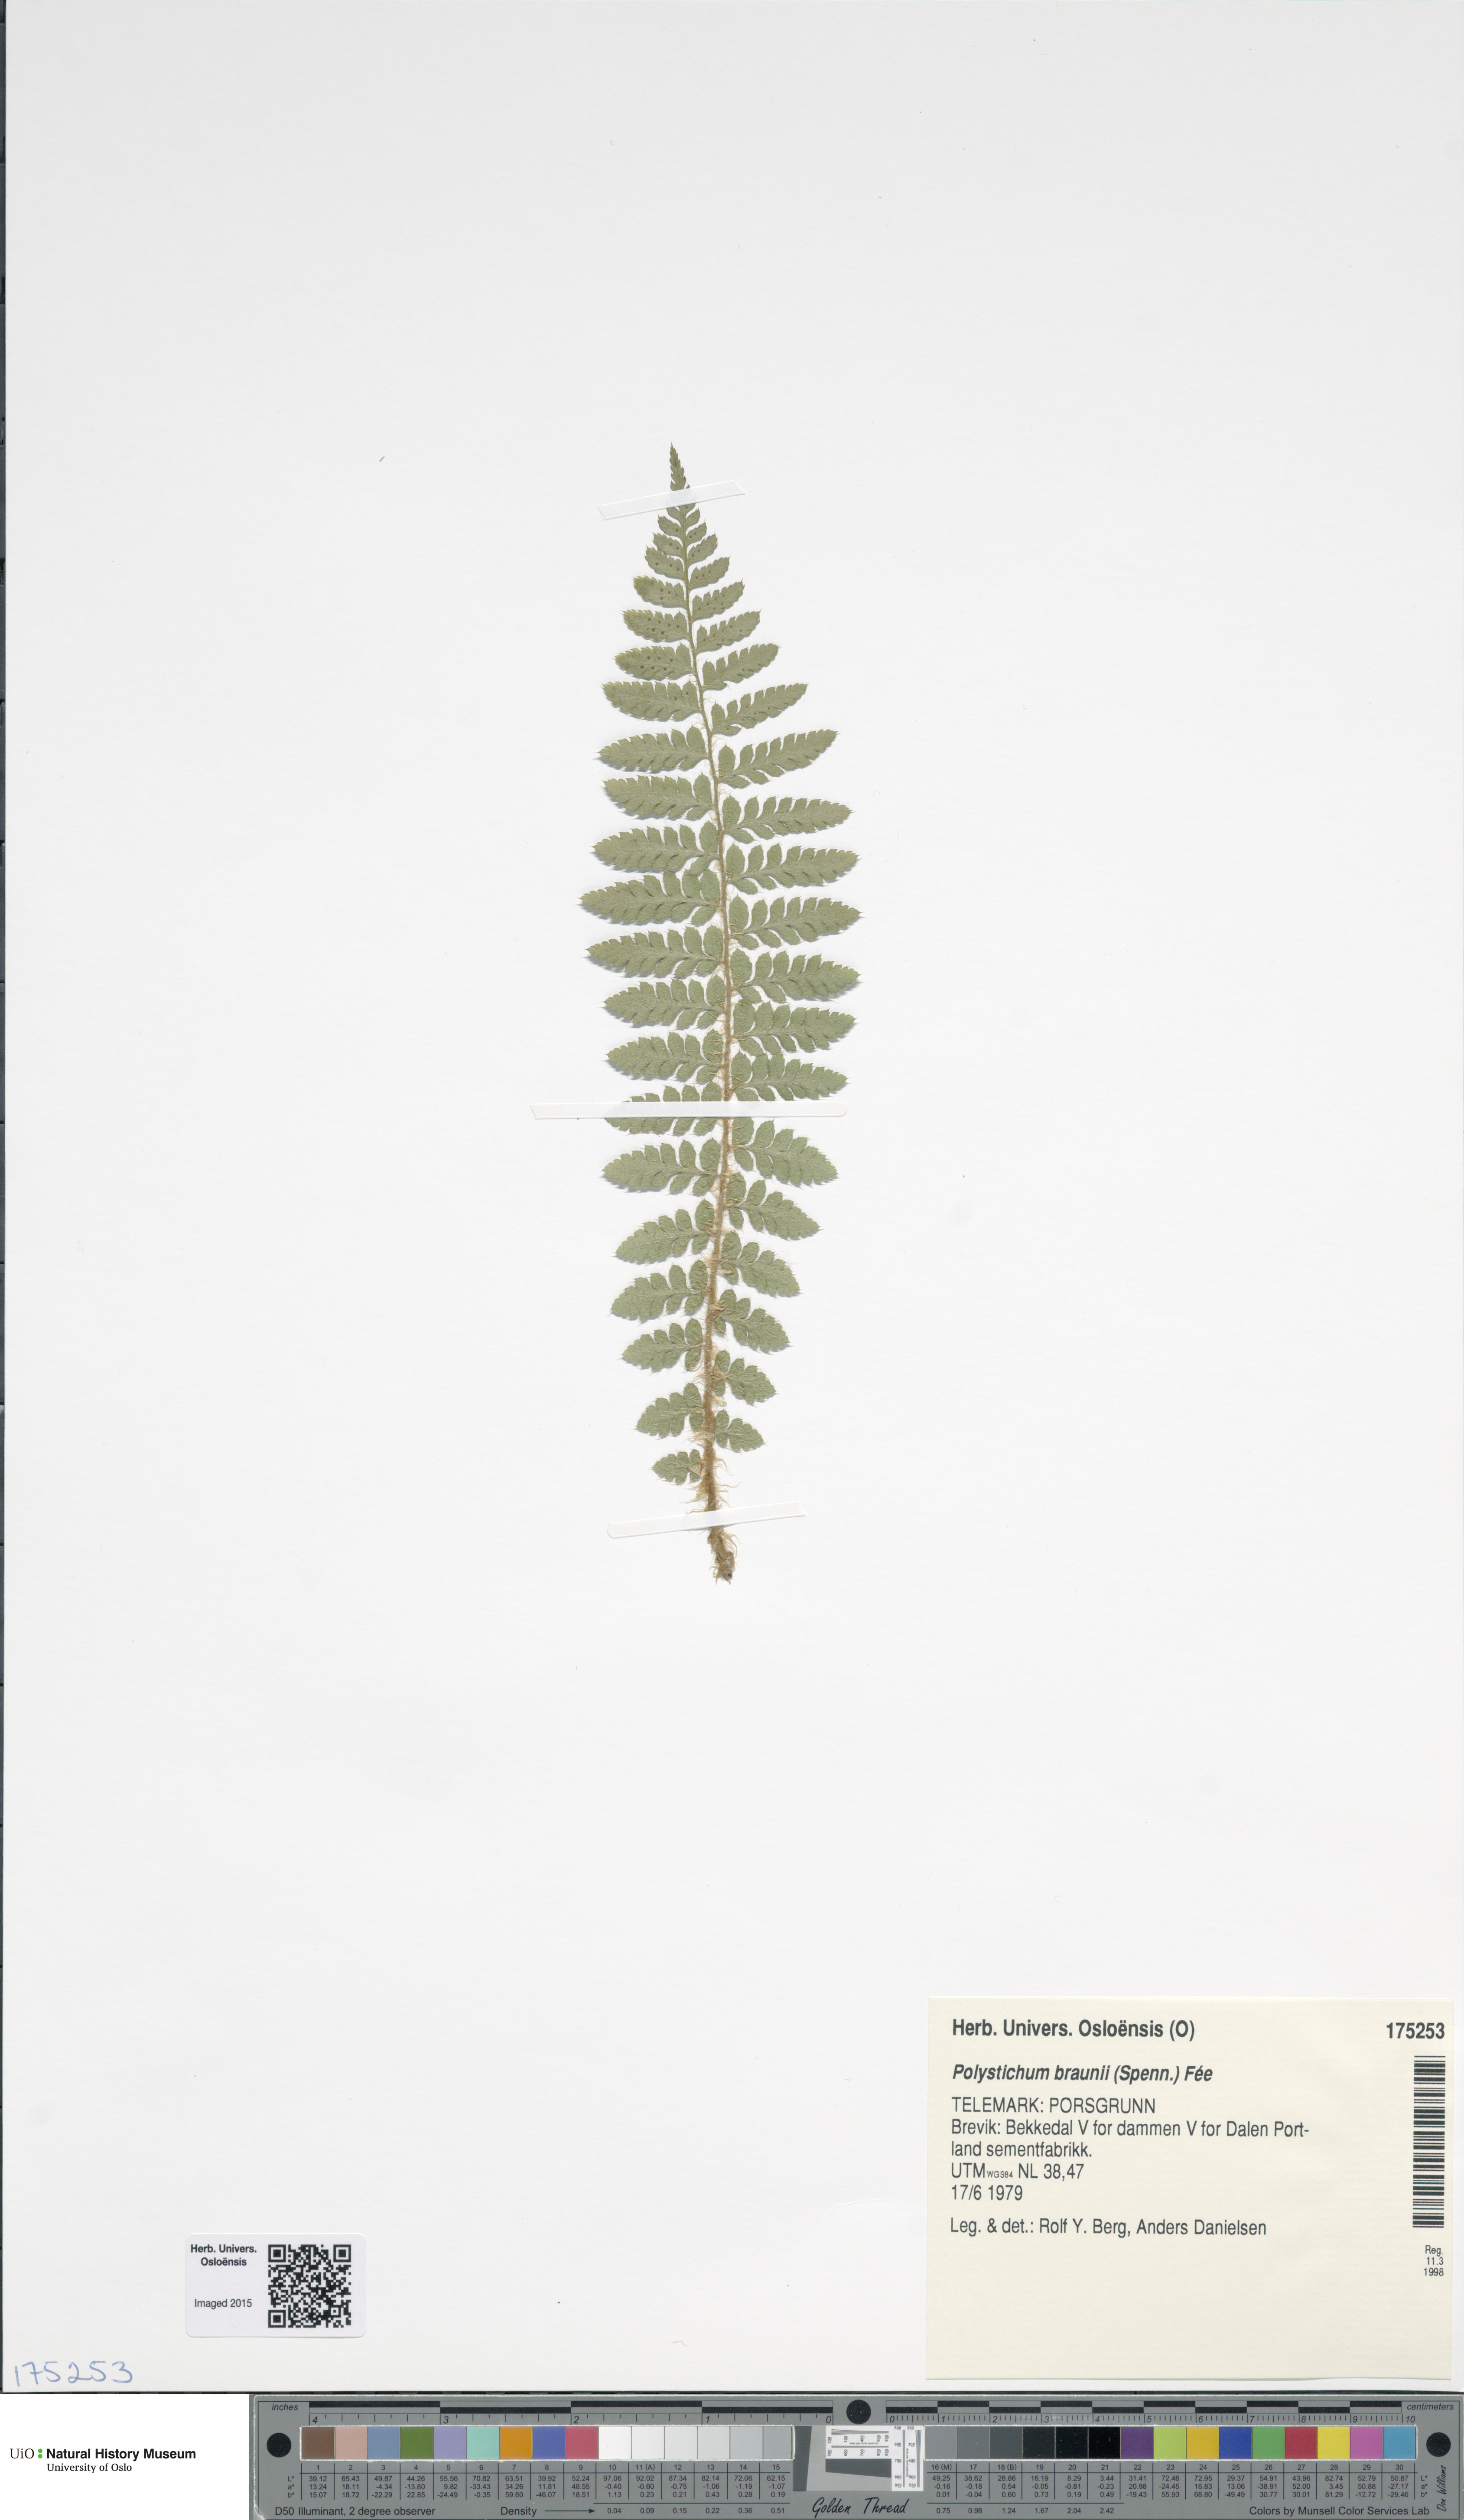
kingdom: Plantae
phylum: Tracheophyta
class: Polypodiopsida
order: Polypodiales
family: Dryopteridaceae
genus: Polystichum
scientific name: Polystichum braunii
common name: Braun's holly fern
